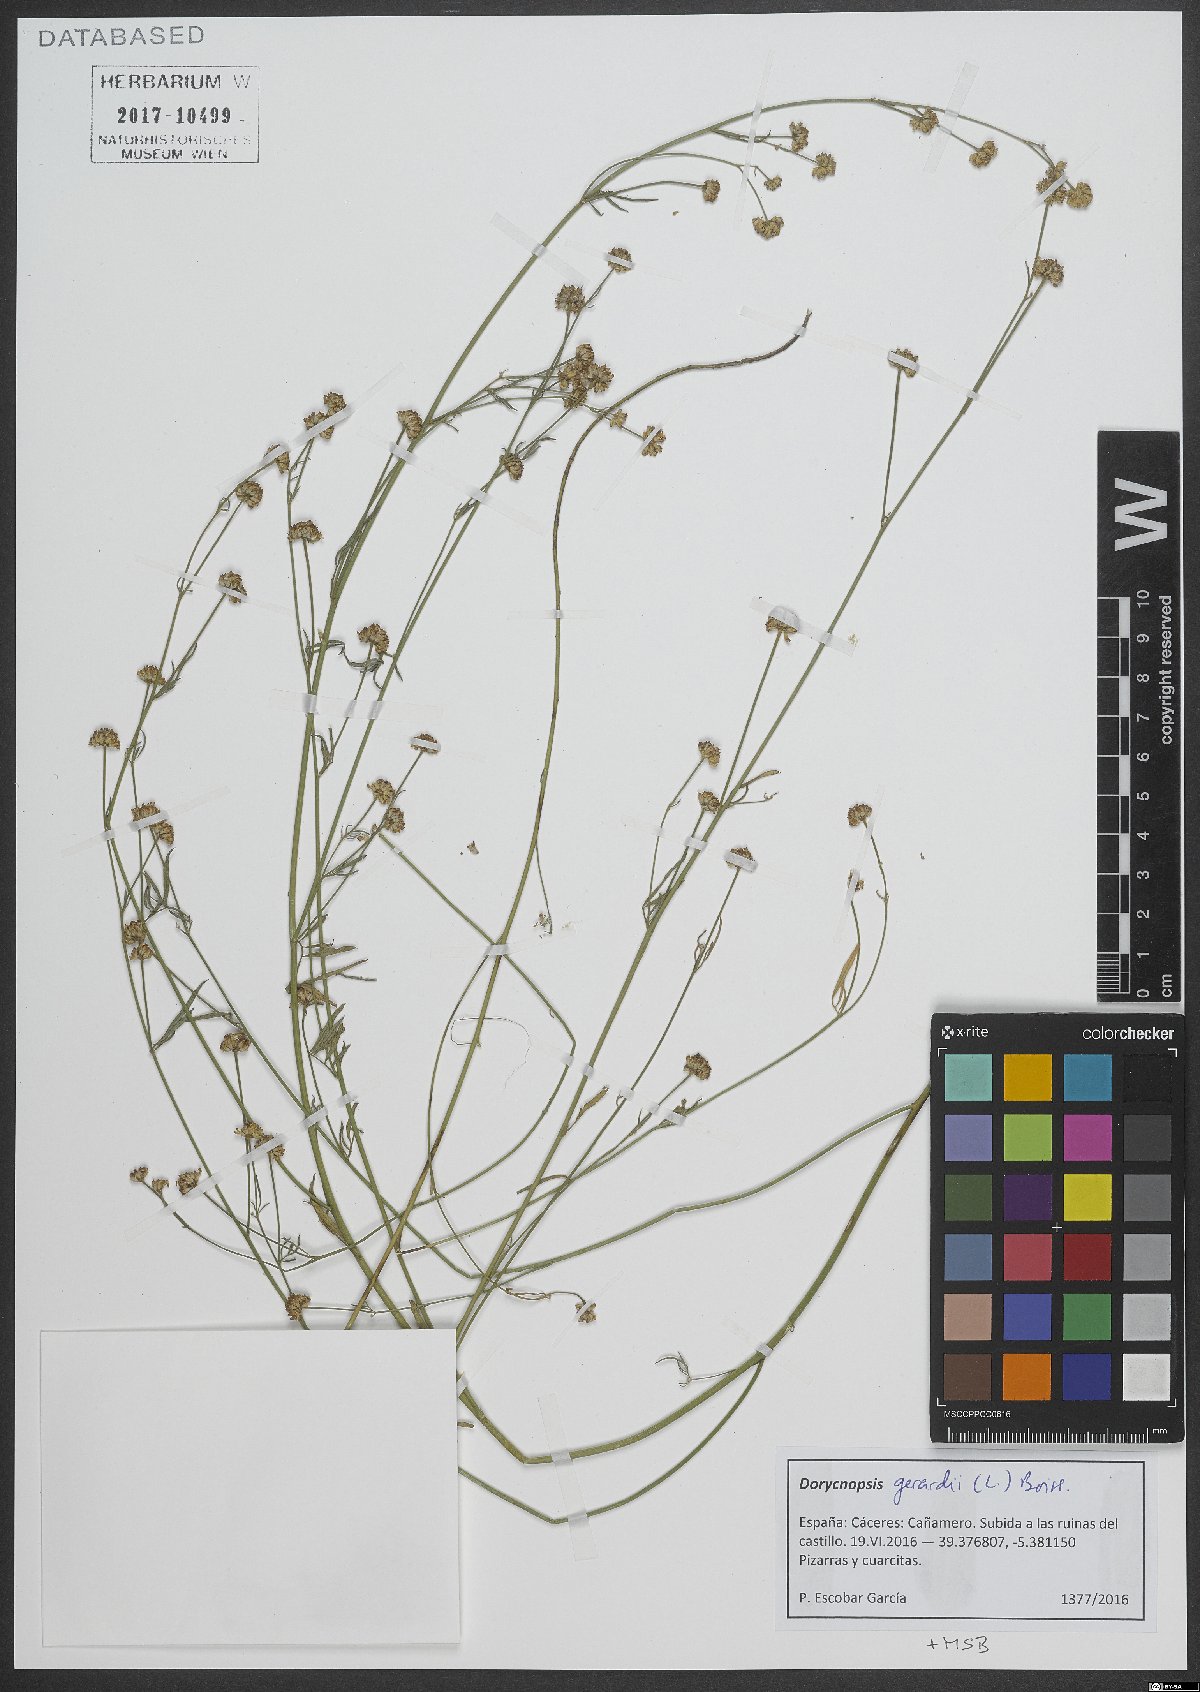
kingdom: Plantae
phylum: Tracheophyta
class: Magnoliopsida
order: Fabales
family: Fabaceae
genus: Dorycnopsis
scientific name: Dorycnopsis gerardi
